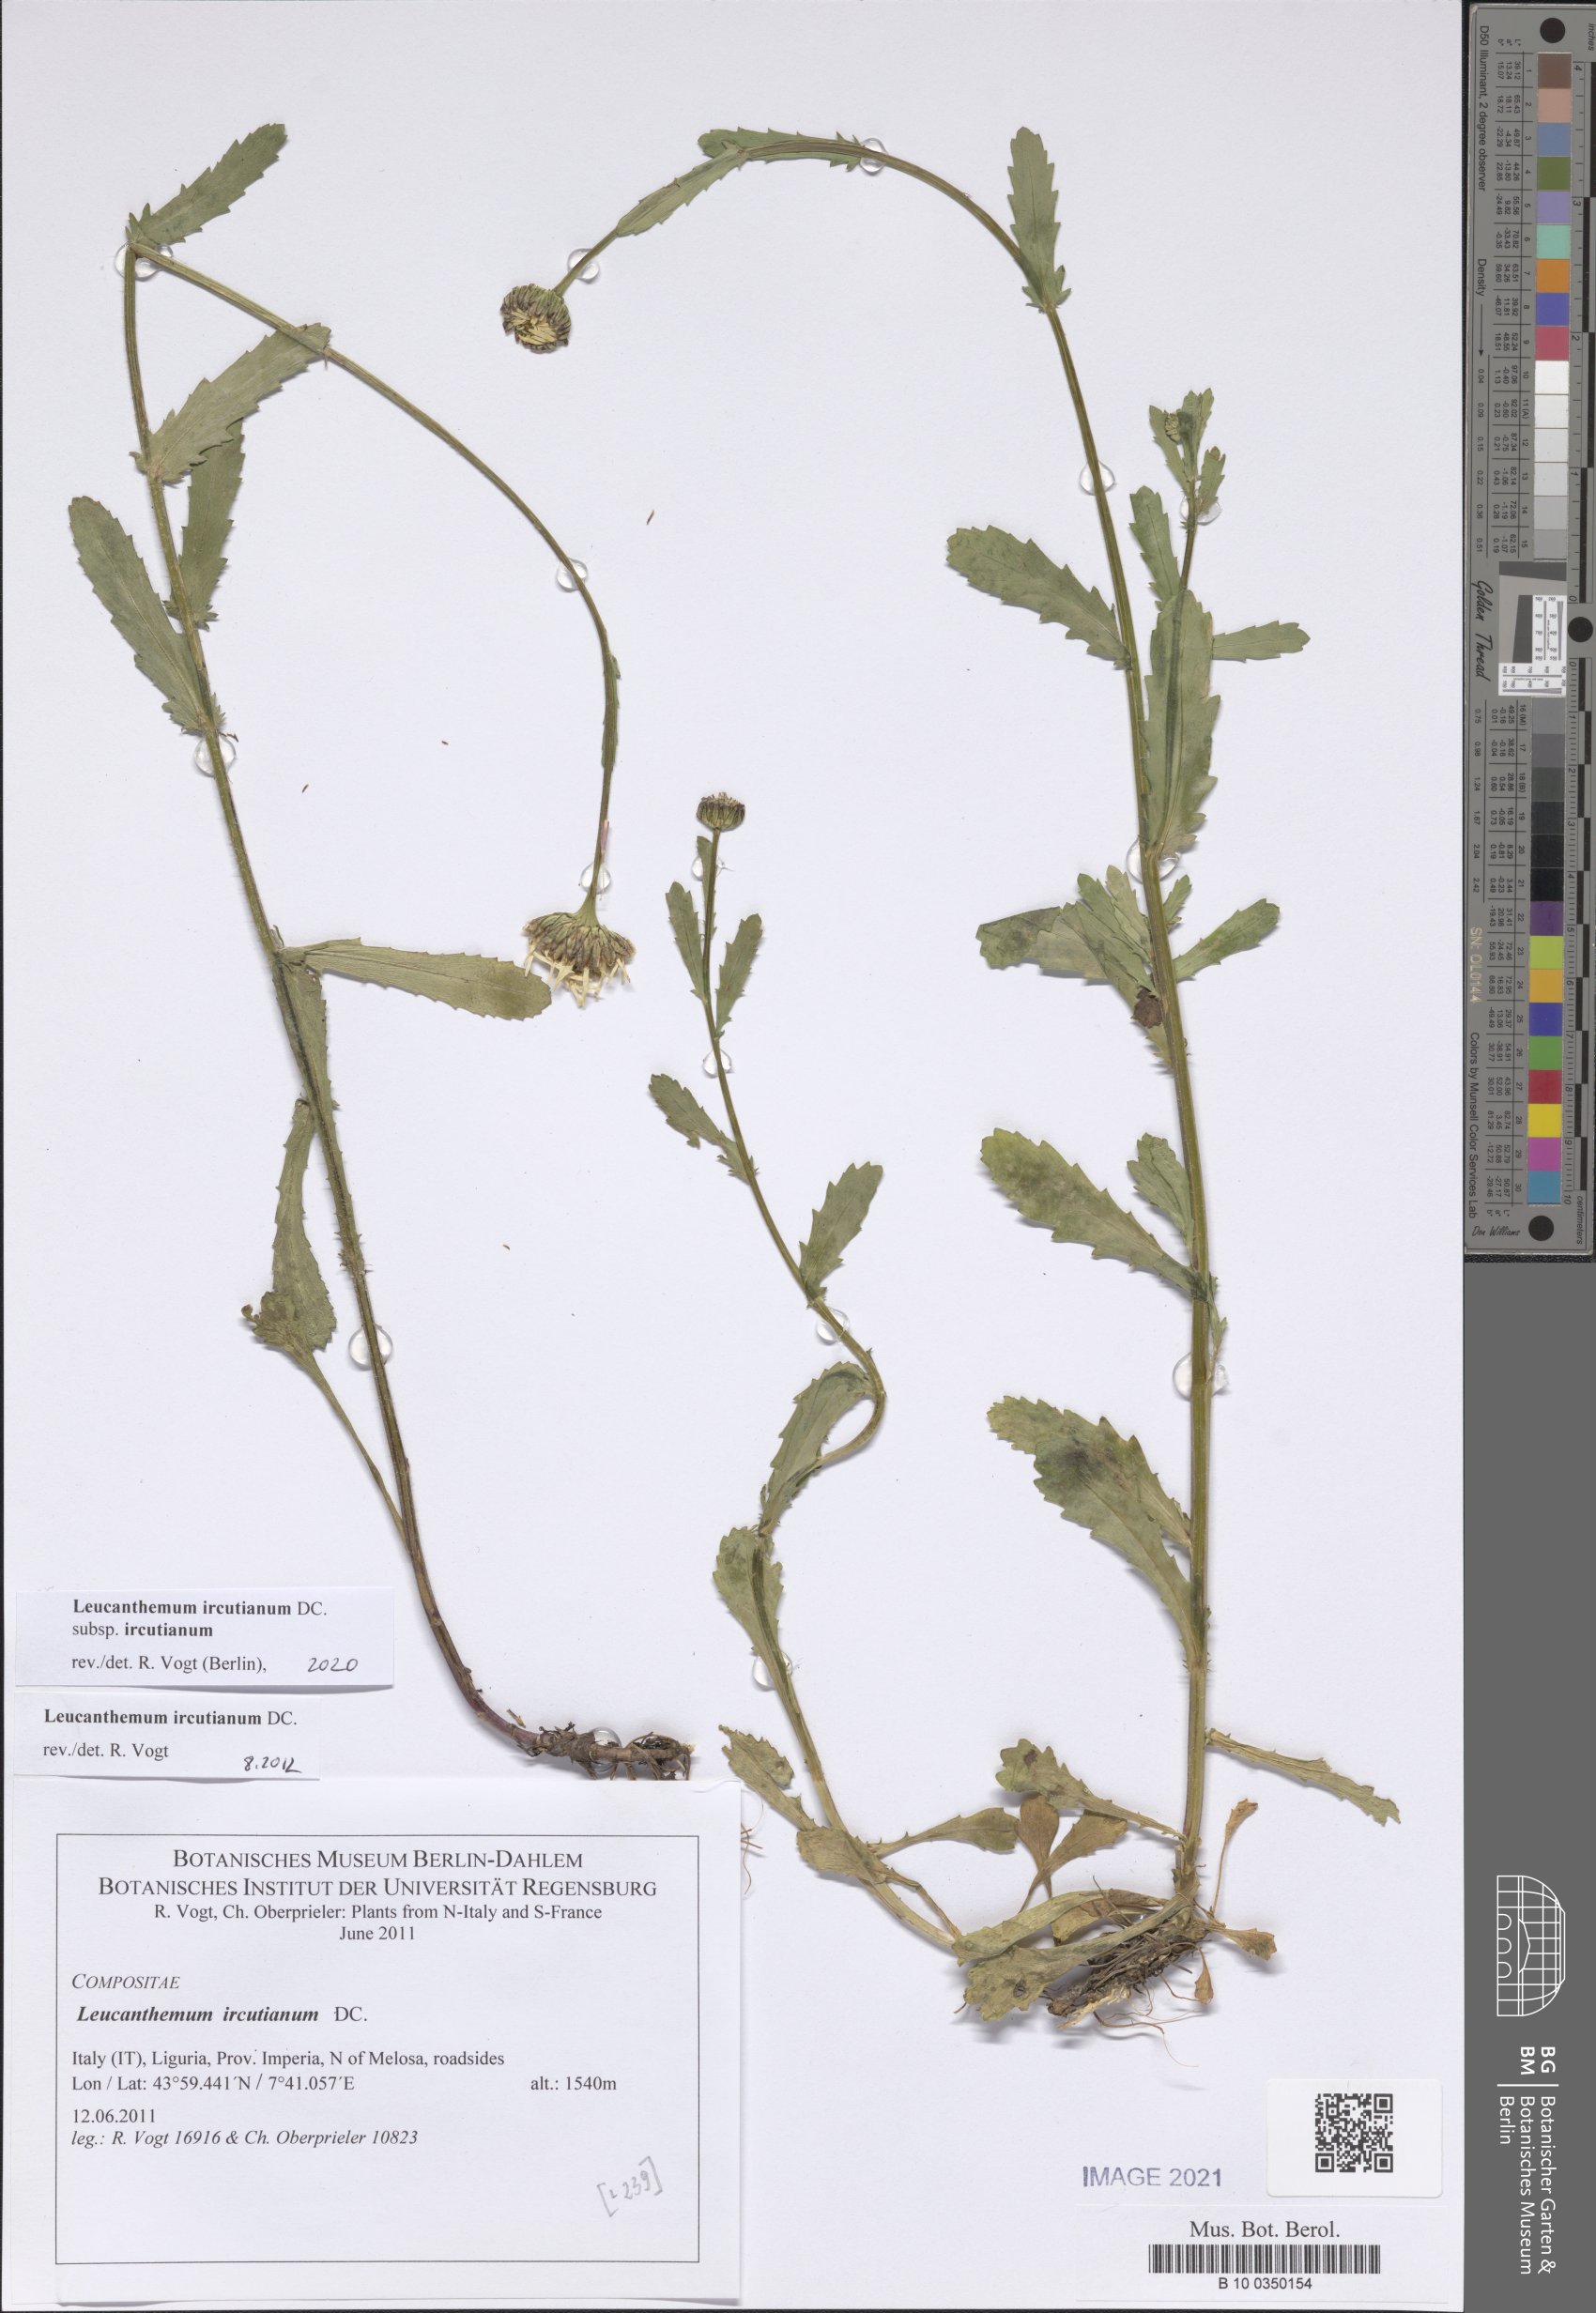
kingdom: Plantae
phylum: Tracheophyta
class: Magnoliopsida
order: Asterales
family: Asteraceae
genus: Leucanthemum
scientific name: Leucanthemum ircutianum
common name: Daisy
